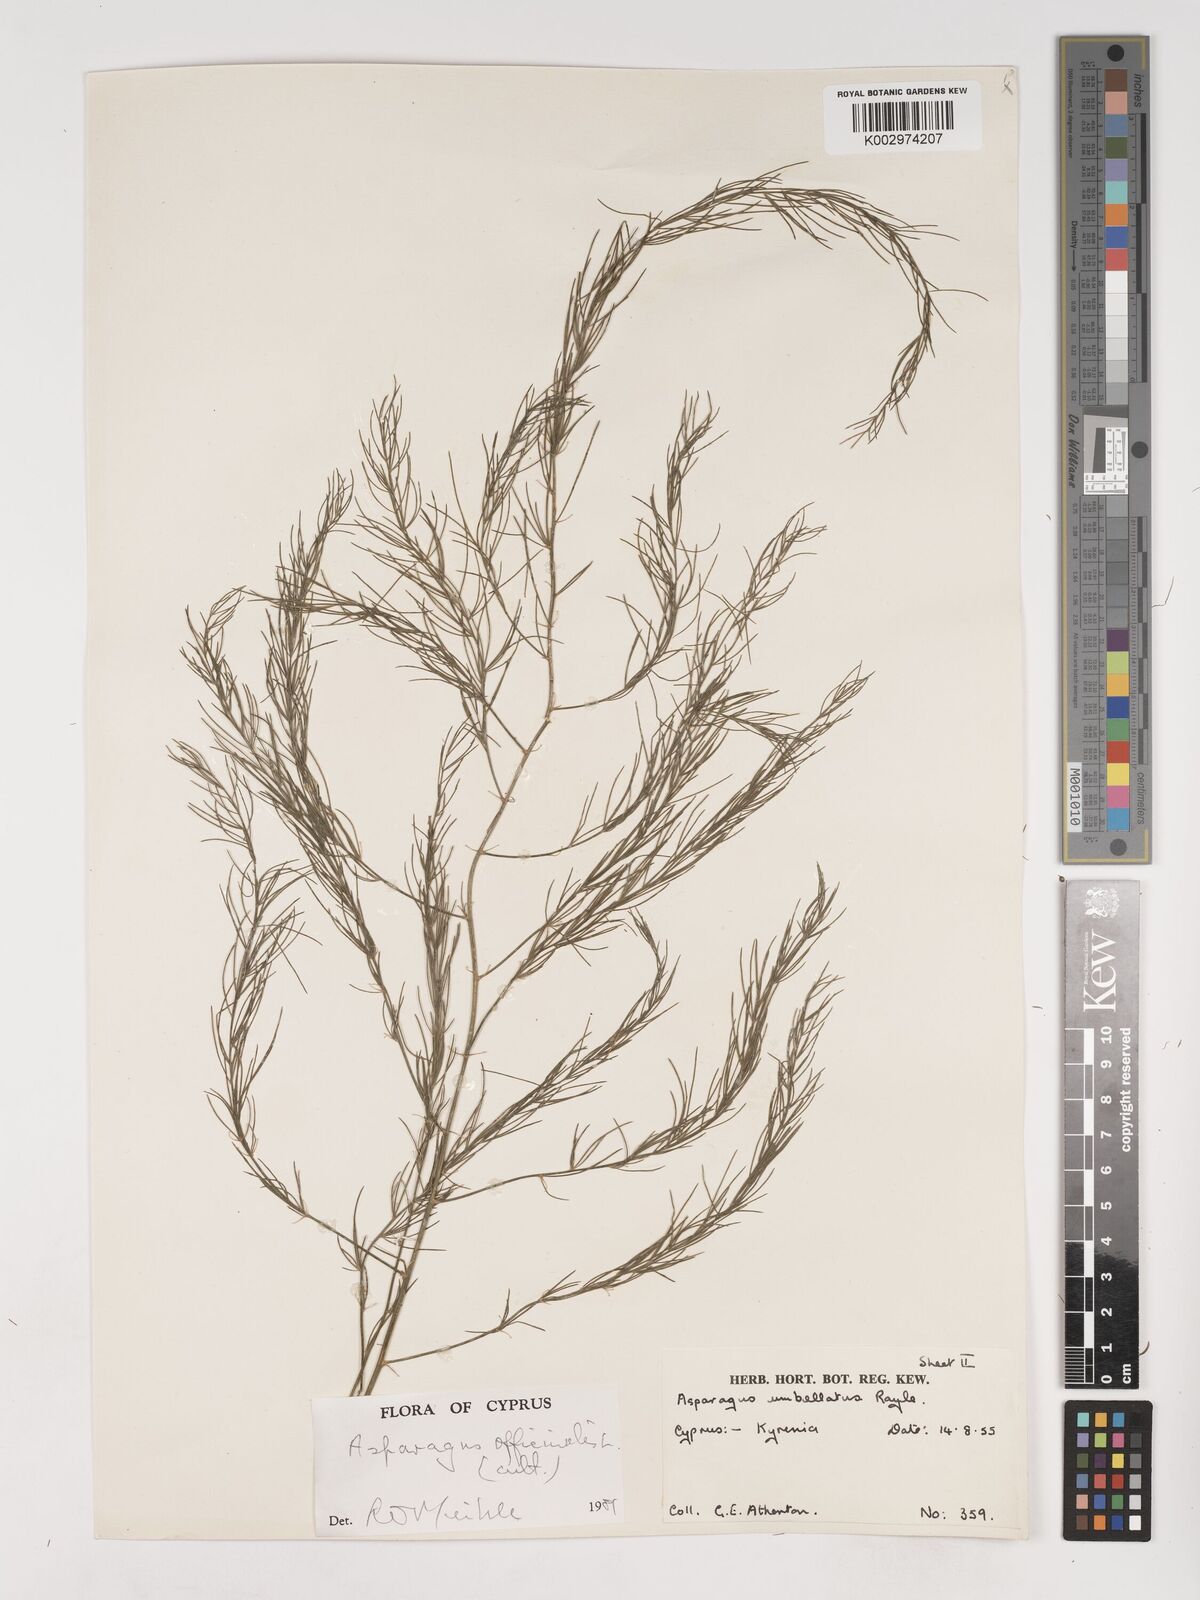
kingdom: Plantae
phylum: Tracheophyta
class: Liliopsida
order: Asparagales
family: Asparagaceae
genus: Asparagus
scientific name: Asparagus
